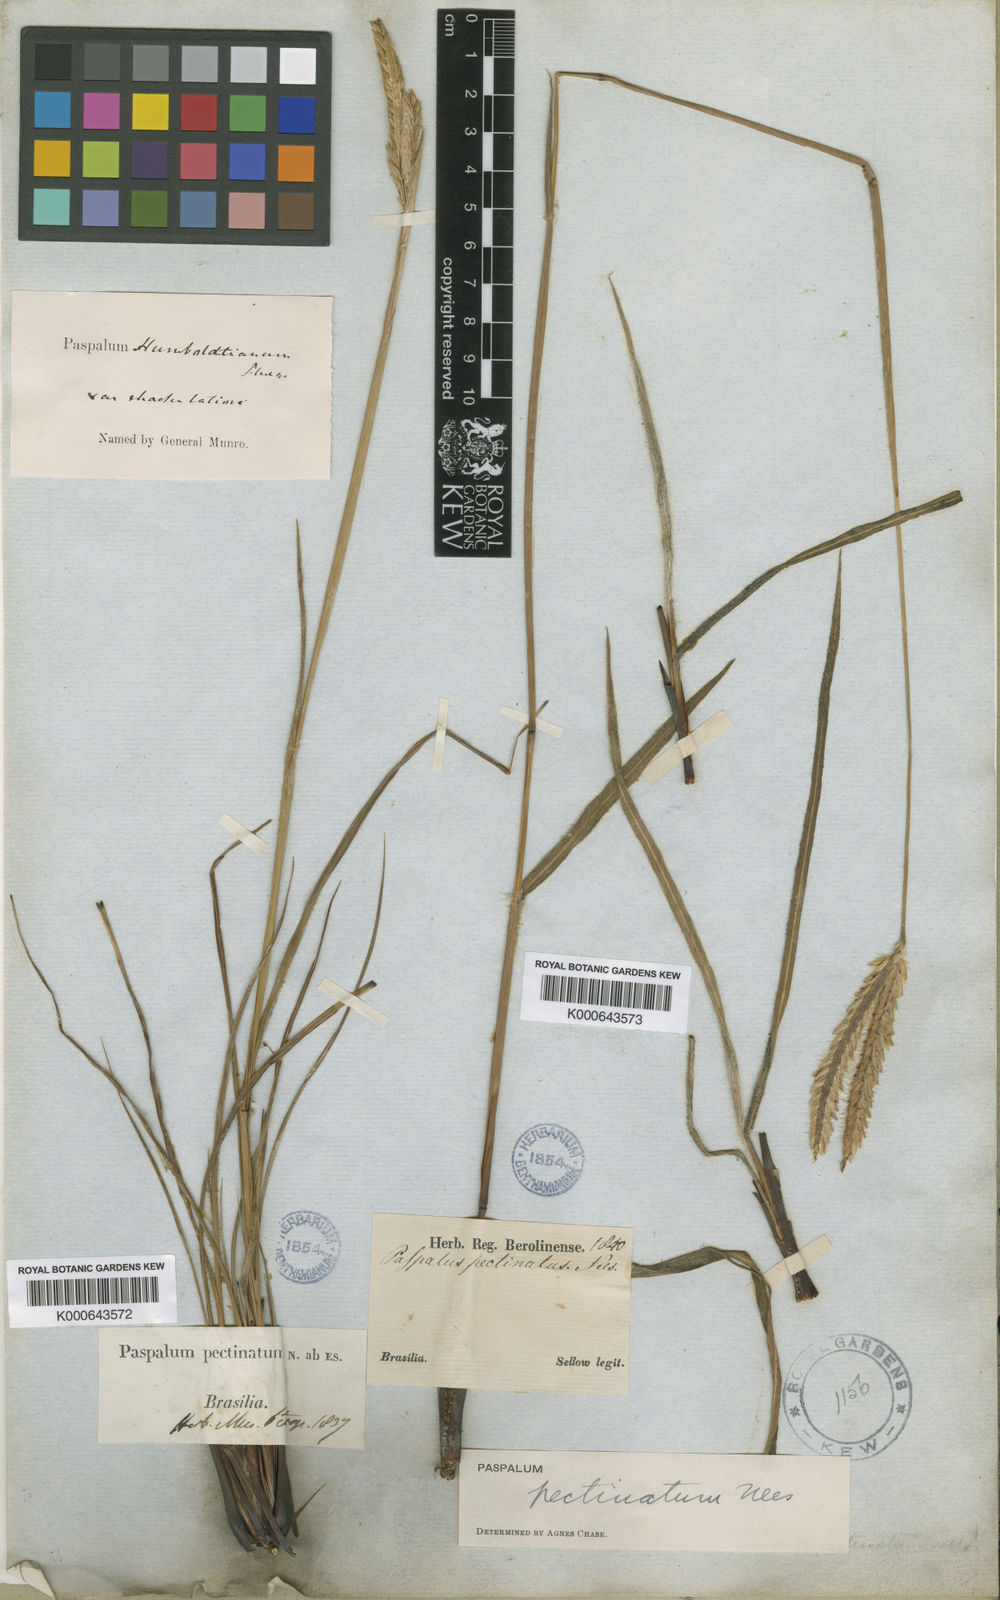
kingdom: Plantae
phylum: Tracheophyta
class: Liliopsida
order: Poales
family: Poaceae
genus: Paspalum
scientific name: Paspalum
